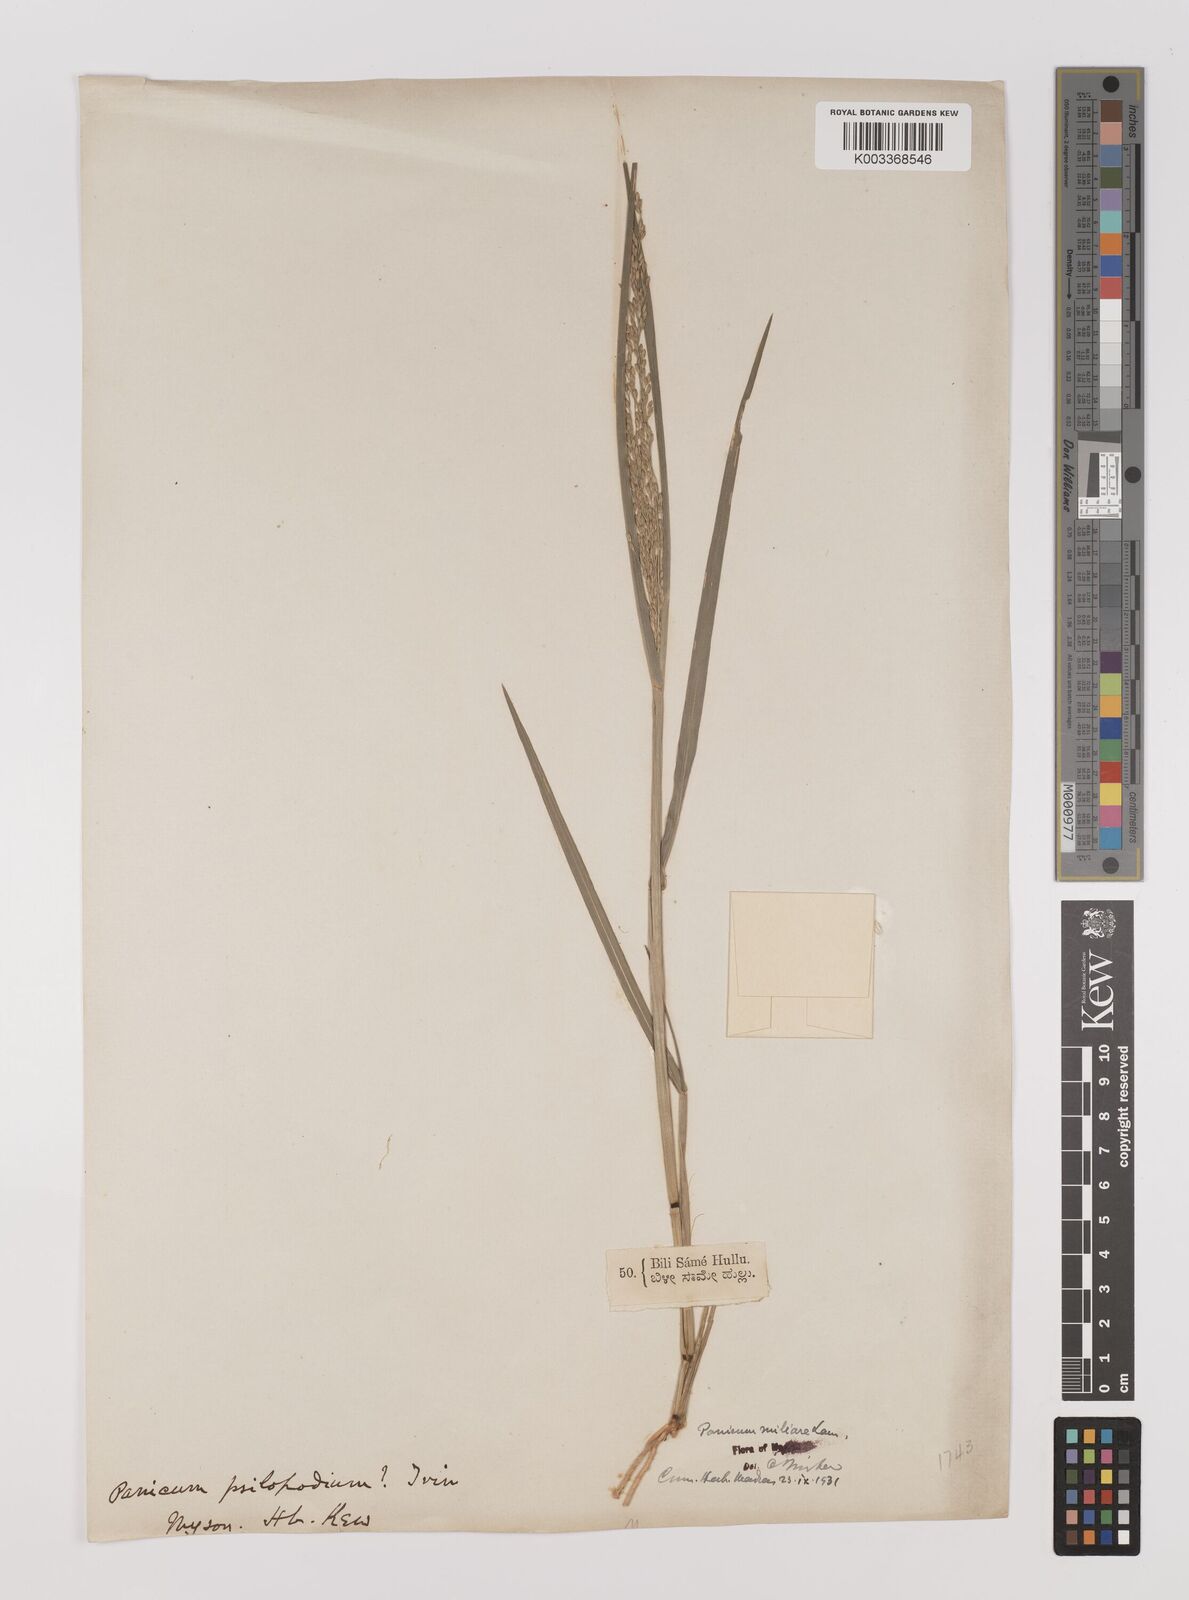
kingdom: Plantae
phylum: Tracheophyta
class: Liliopsida
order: Poales
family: Poaceae
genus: Panicum
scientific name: Panicum sumatrense
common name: Little millet
